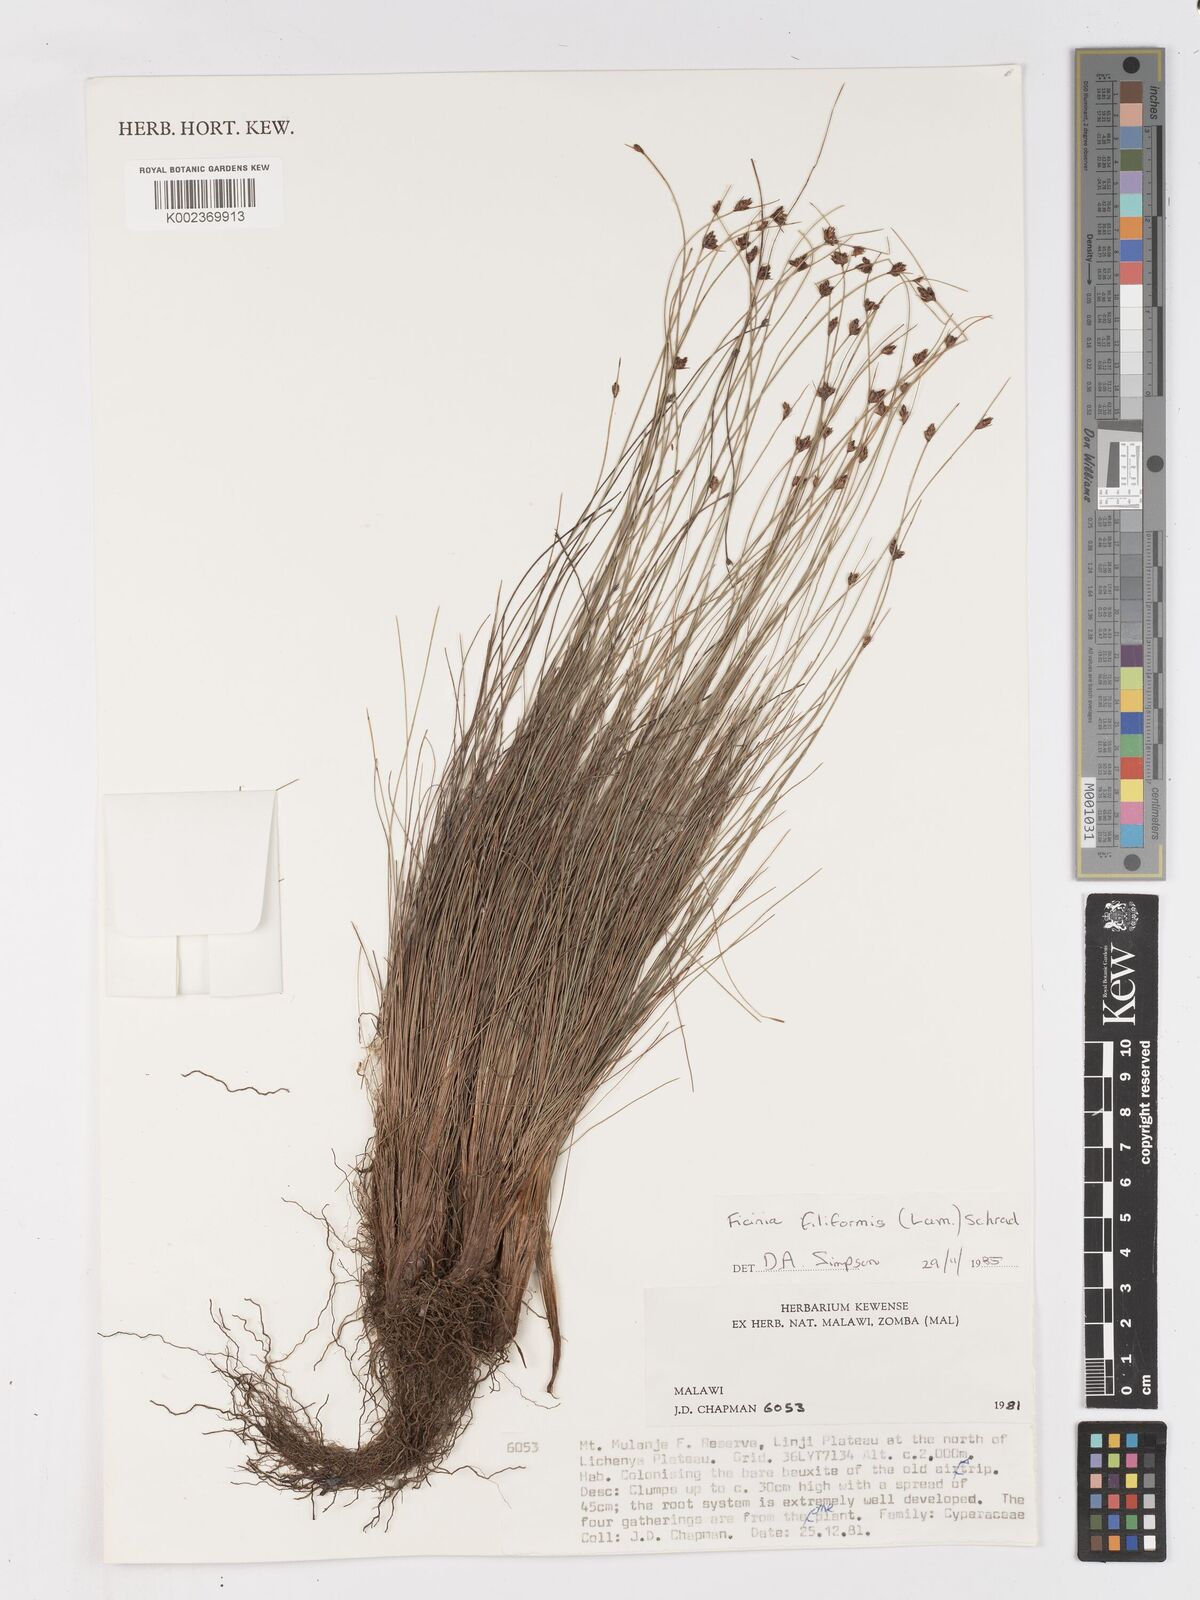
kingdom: Plantae
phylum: Tracheophyta
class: Liliopsida
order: Poales
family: Cyperaceae
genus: Ficinia
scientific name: Ficinia stolonifera
